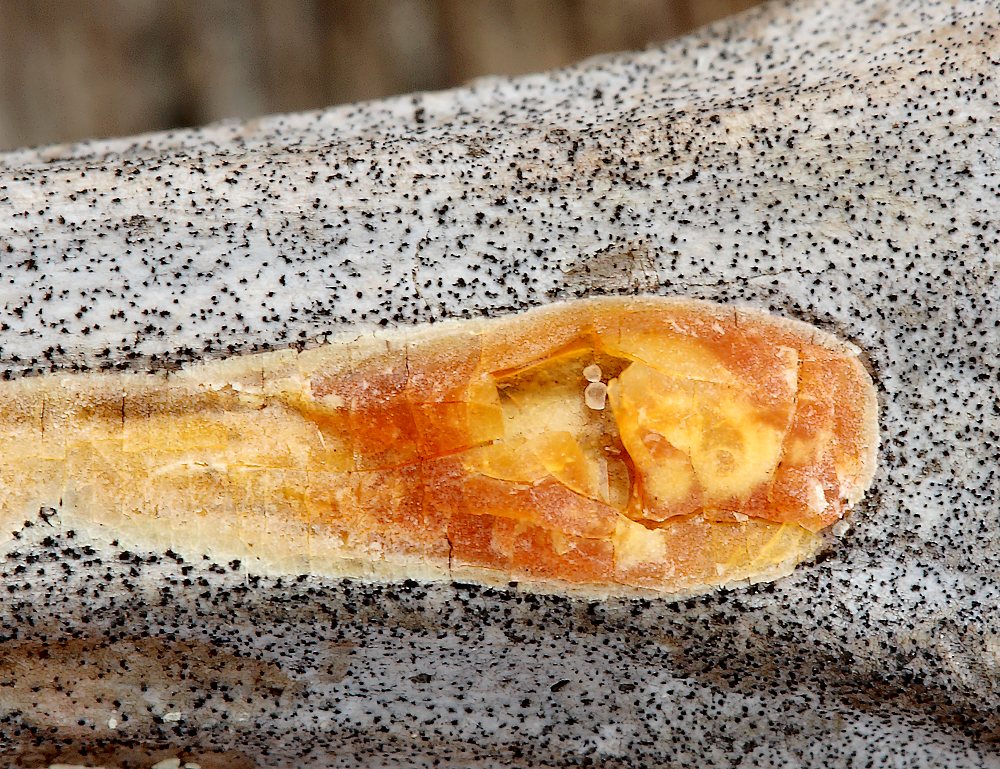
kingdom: Fungi
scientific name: Fungi
